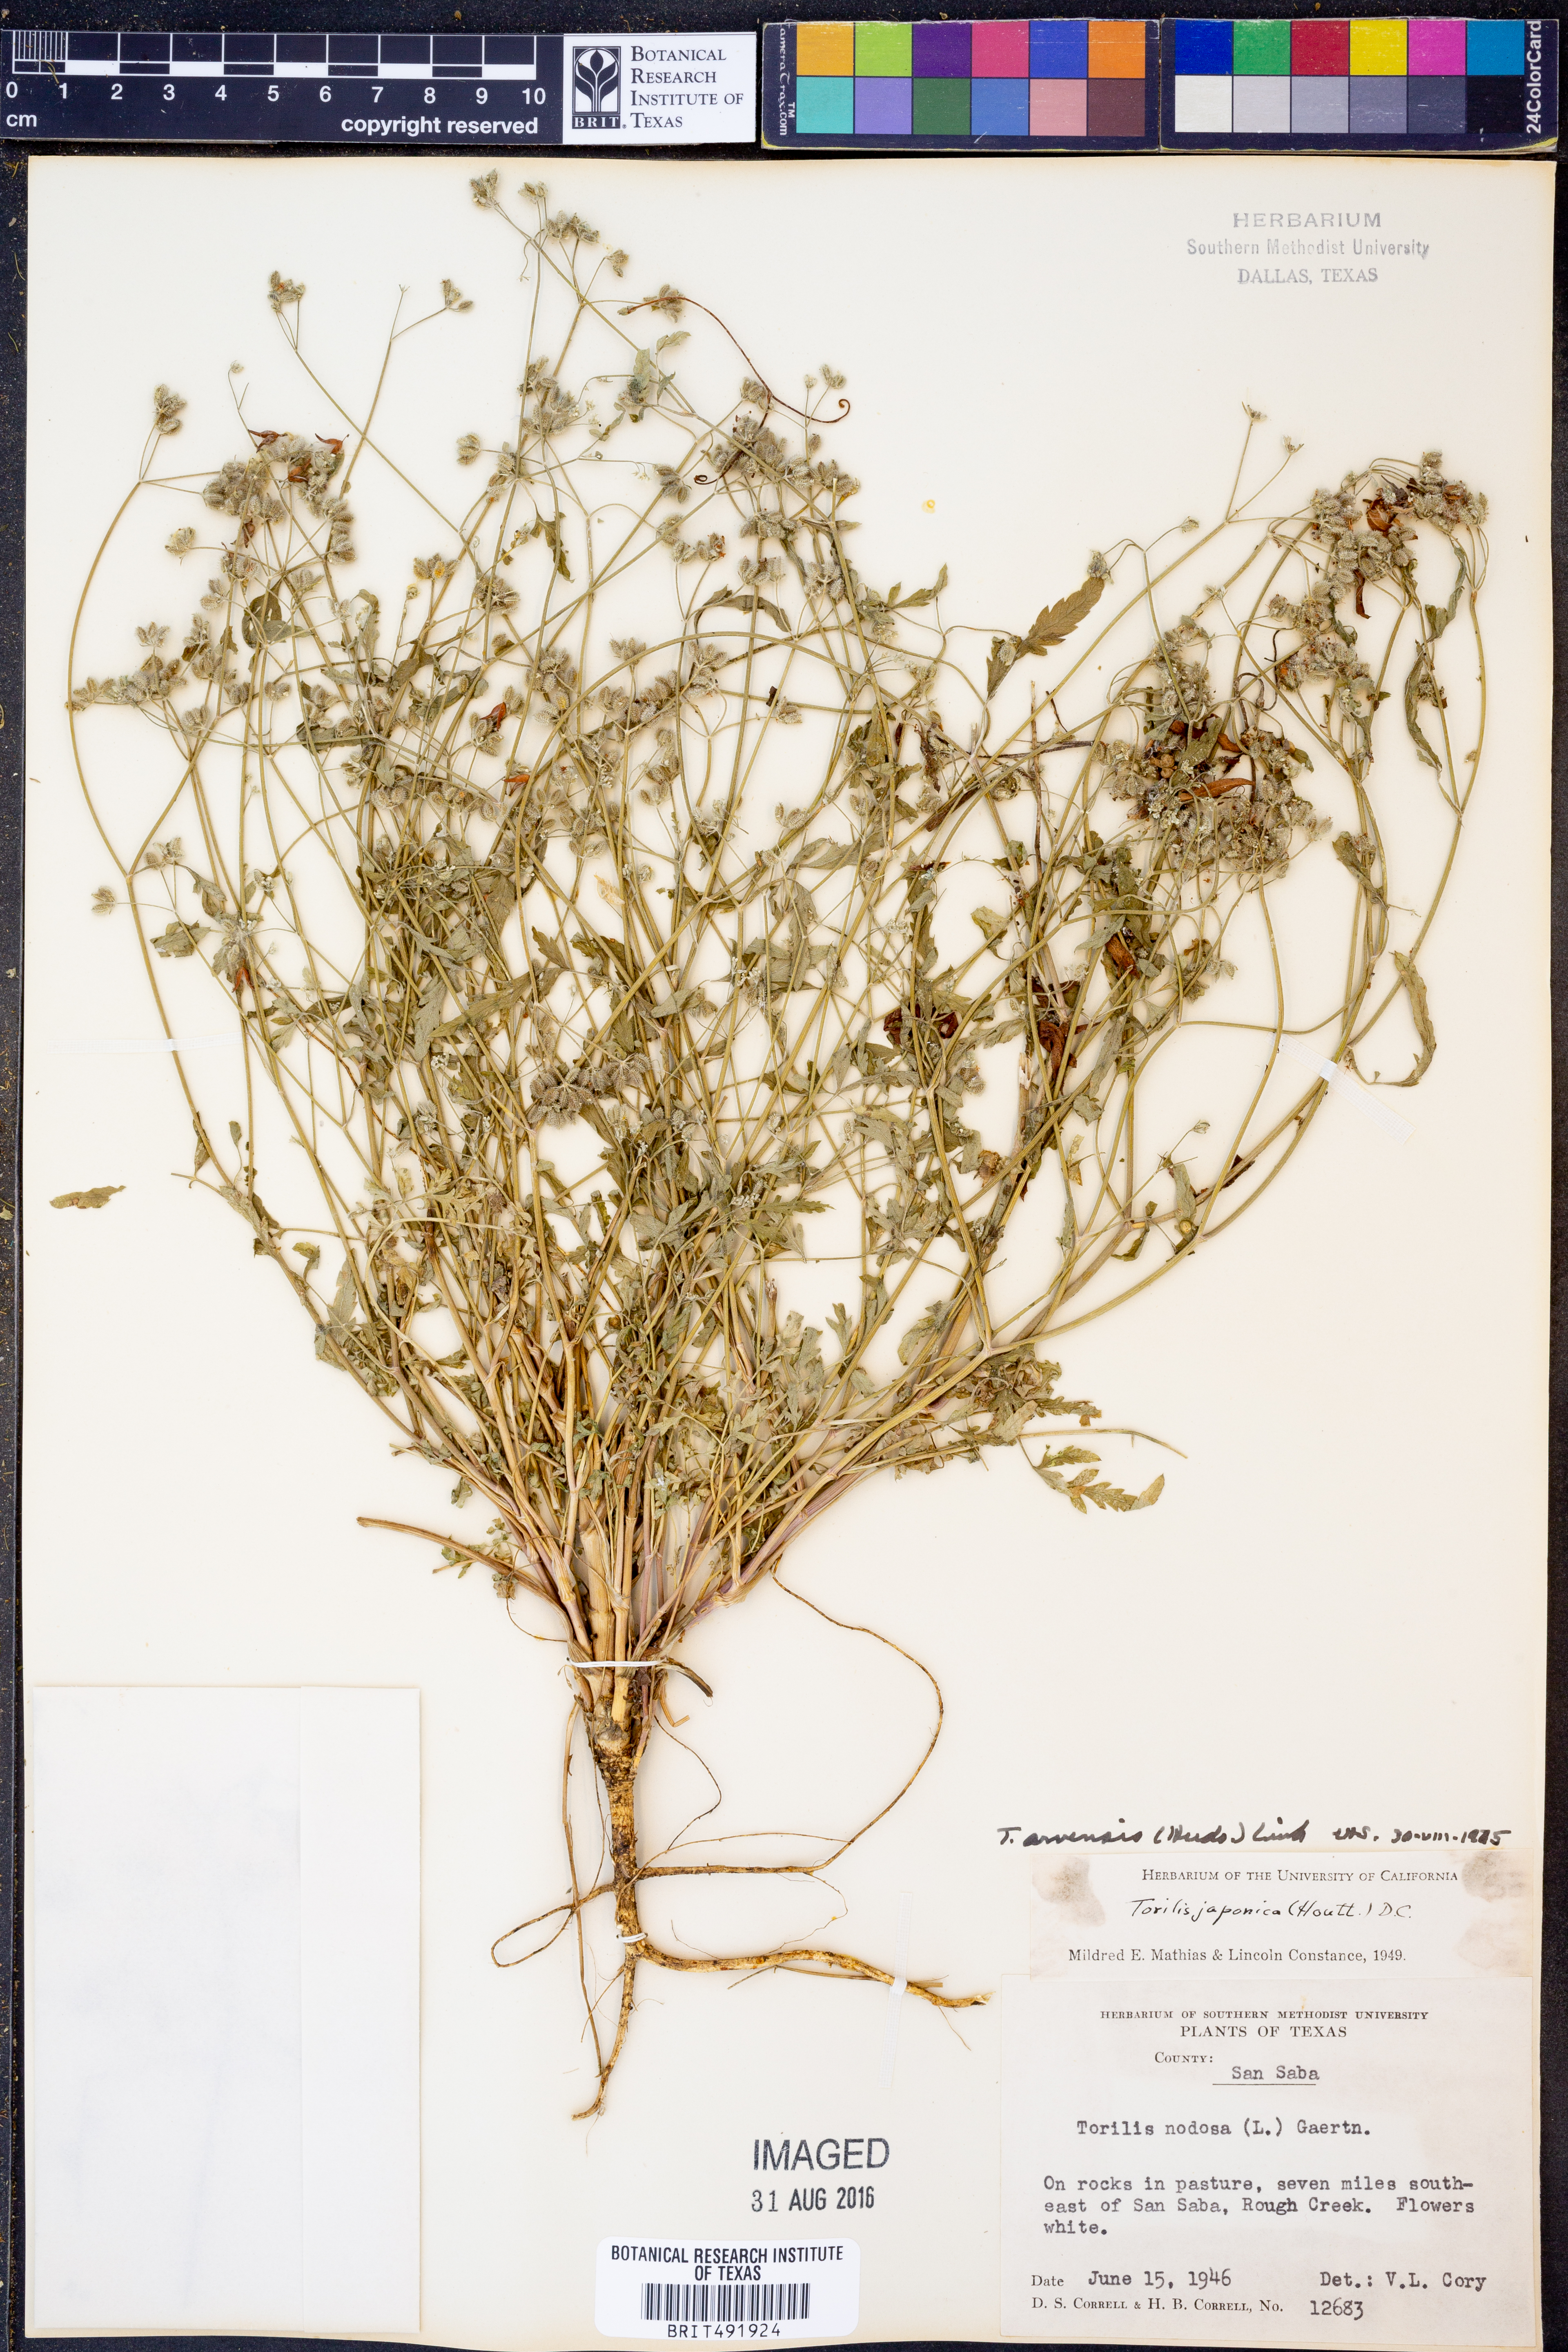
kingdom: Plantae
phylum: Tracheophyta
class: Magnoliopsida
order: Apiales
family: Apiaceae
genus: Torilis
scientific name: Torilis arvensis
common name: Spreading hedge-parsley
